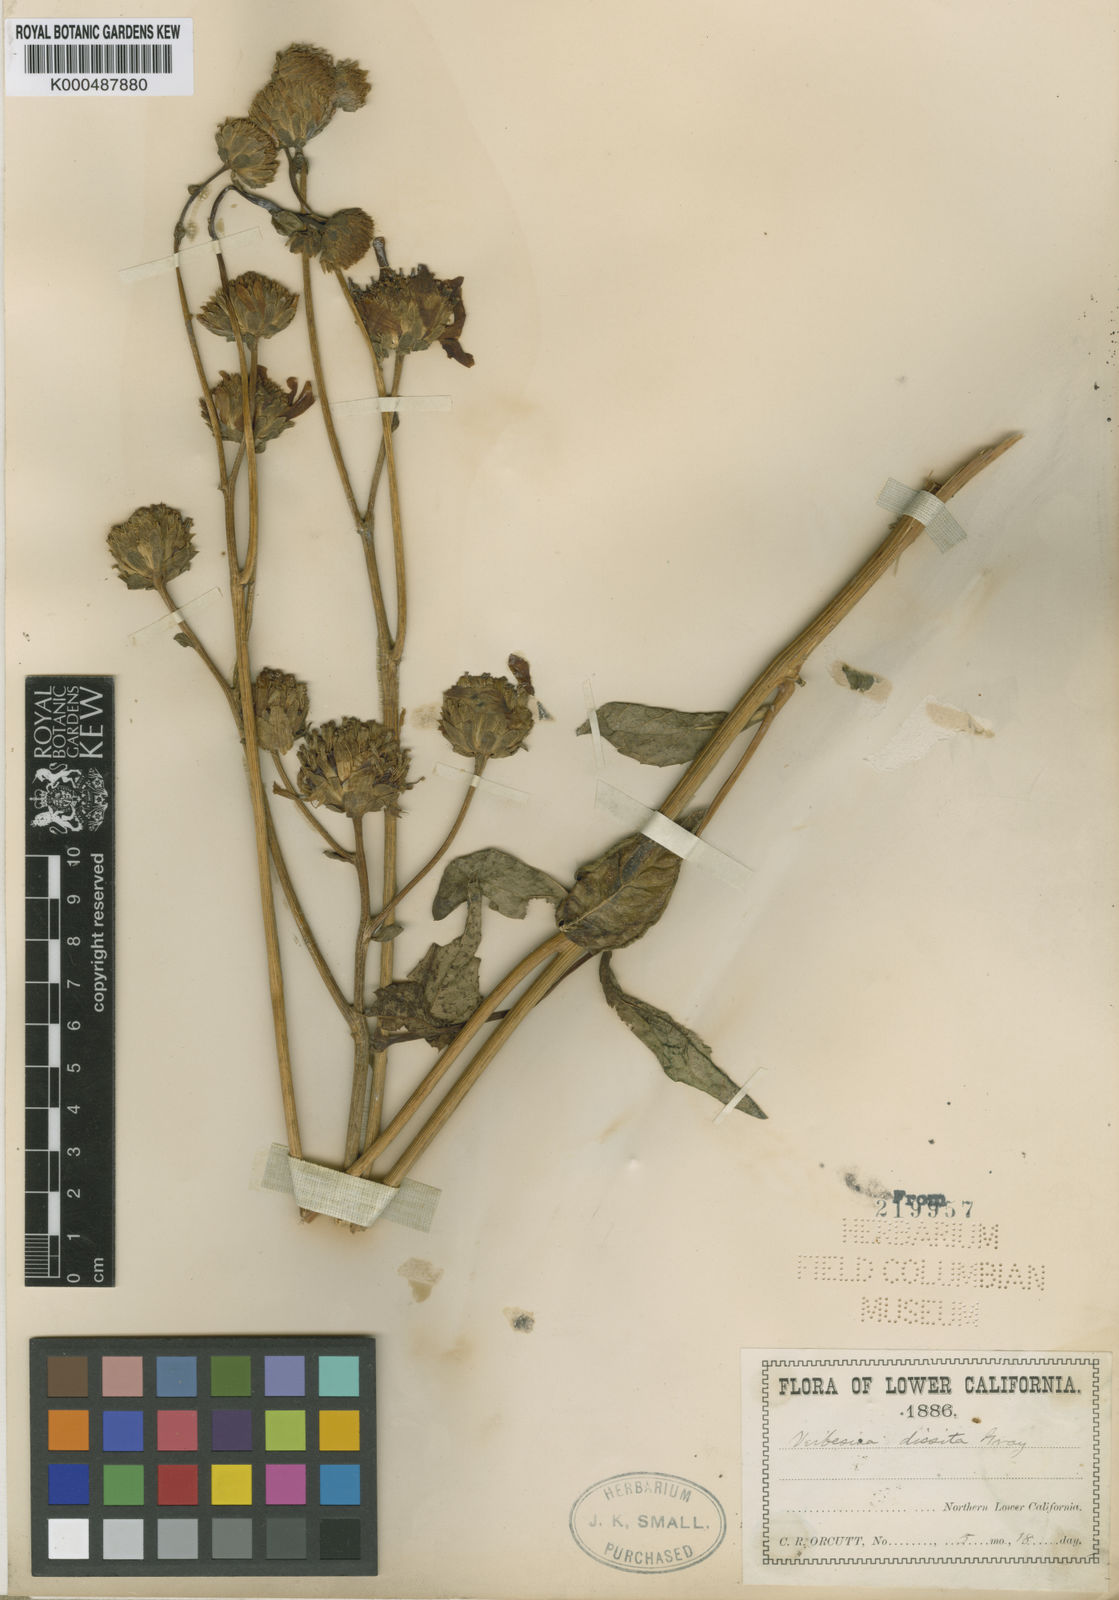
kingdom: Plantae
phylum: Tracheophyta
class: Magnoliopsida
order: Asterales
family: Asteraceae
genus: Verbesina
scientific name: Verbesina dissita
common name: Big-leaf crownbeard
